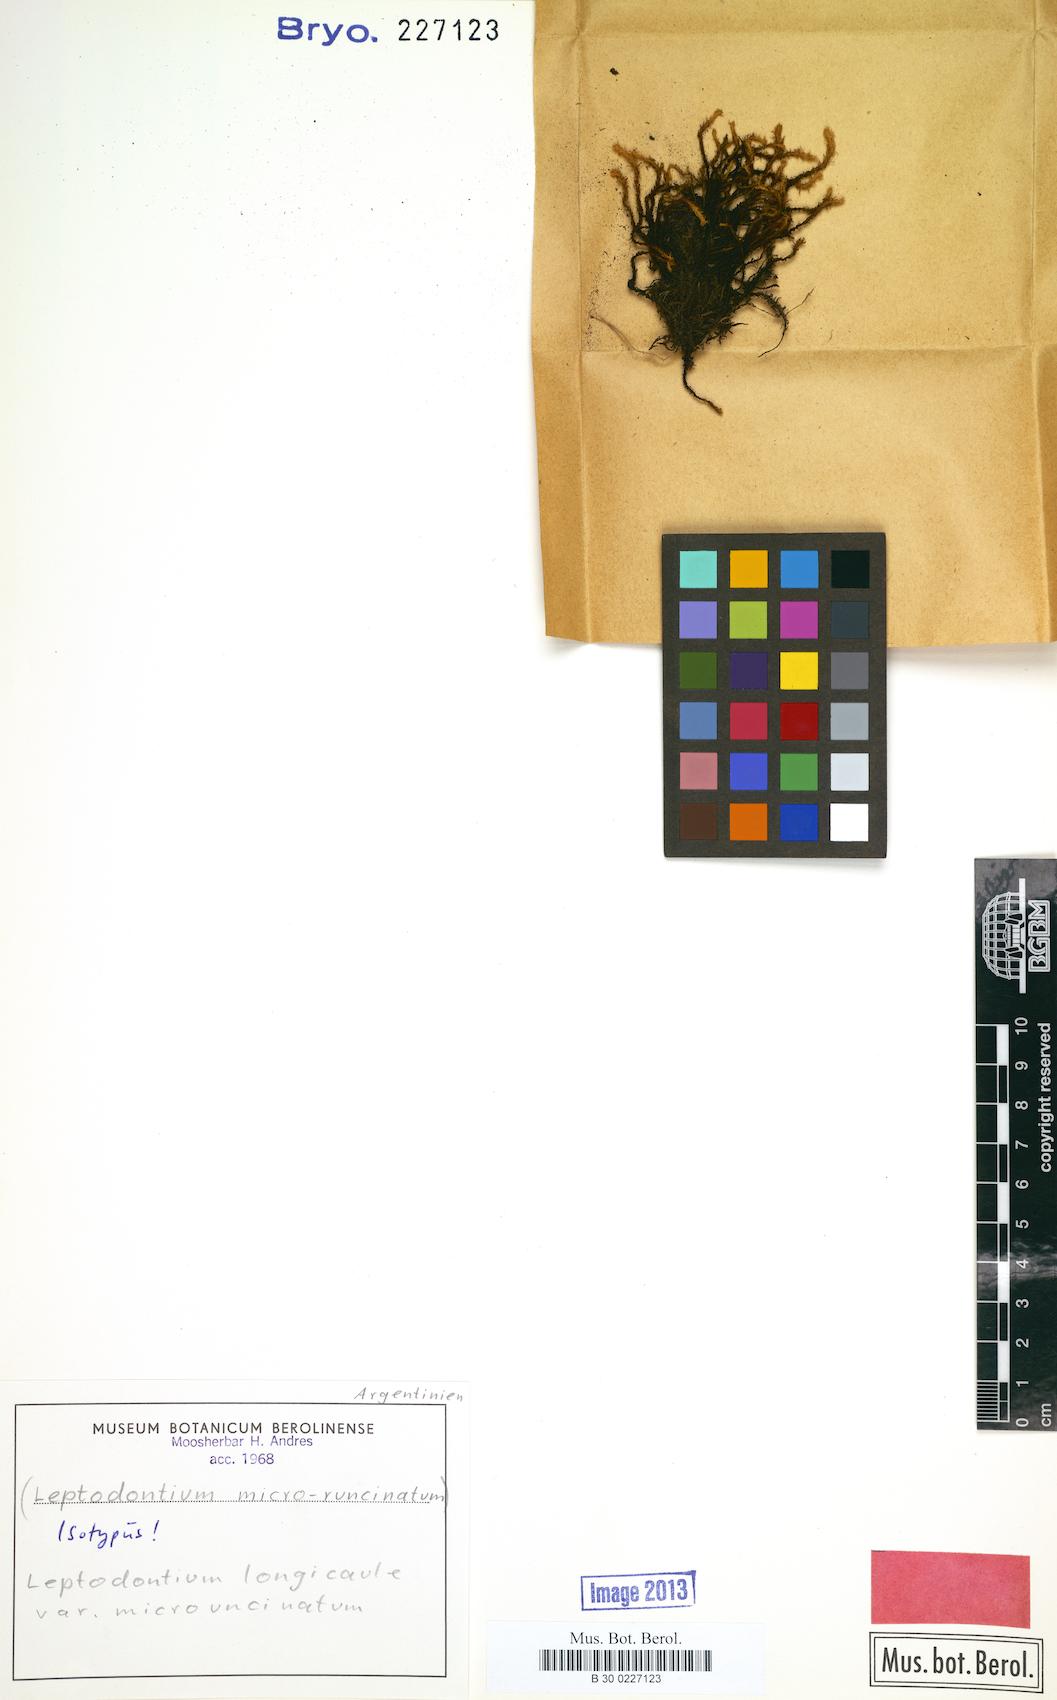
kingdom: Plantae
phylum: Bryophyta
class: Bryopsida
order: Pottiales
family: Pottiaceae
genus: Leptodontium
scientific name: Leptodontium longicaule
